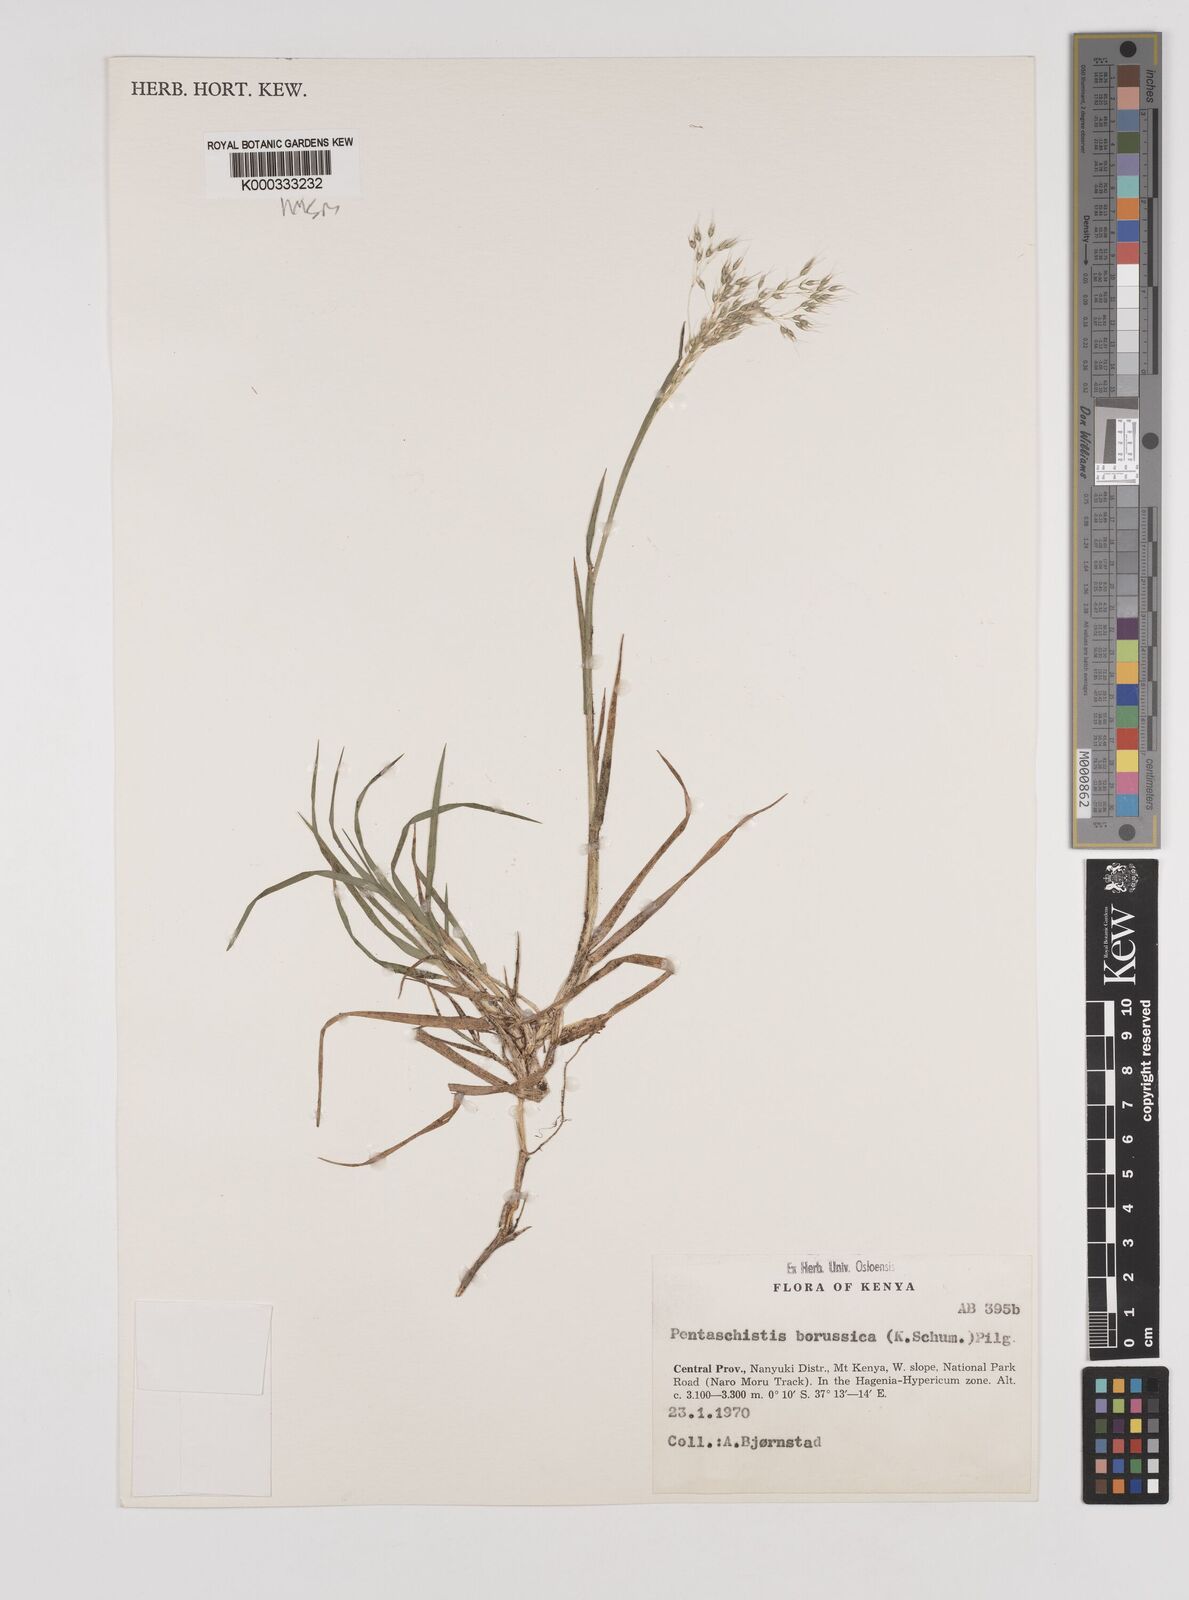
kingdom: Plantae
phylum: Tracheophyta
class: Liliopsida
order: Poales
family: Poaceae
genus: Pentameris
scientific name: Pentameris borussica
